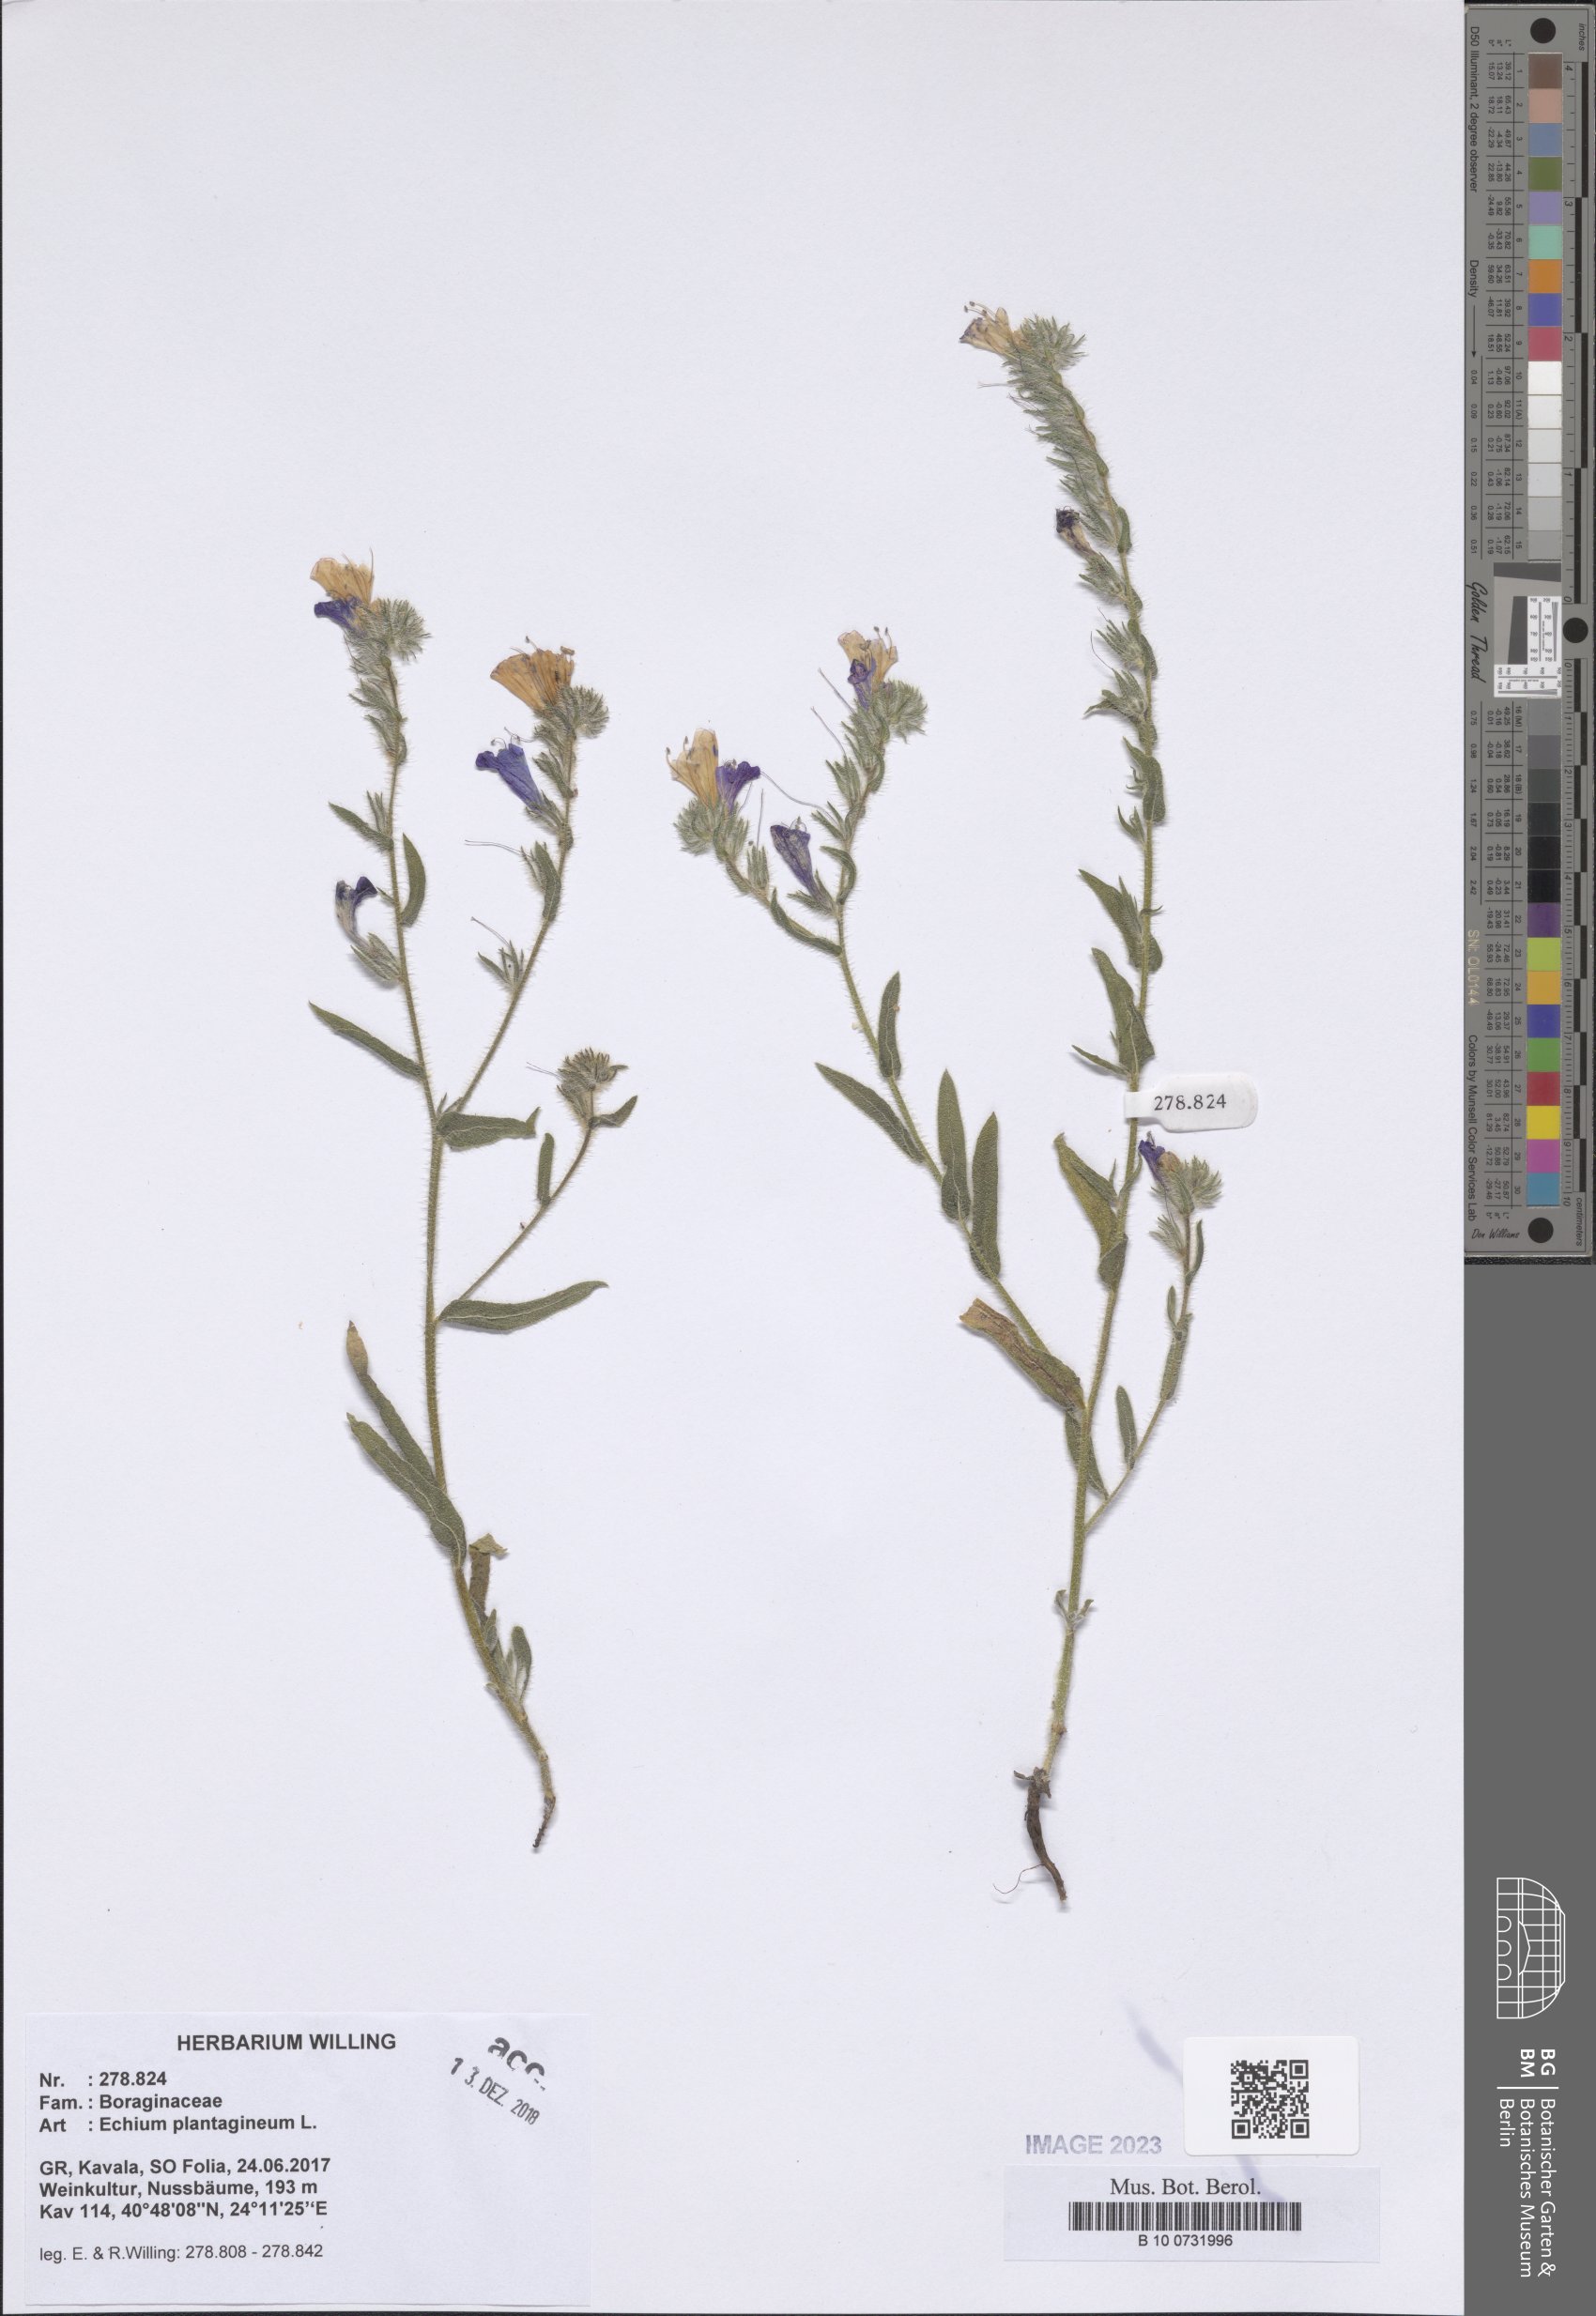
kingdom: Plantae
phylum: Tracheophyta
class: Magnoliopsida
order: Boraginales
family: Boraginaceae
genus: Echium
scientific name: Echium plantagineum
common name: Purple viper's-bugloss
